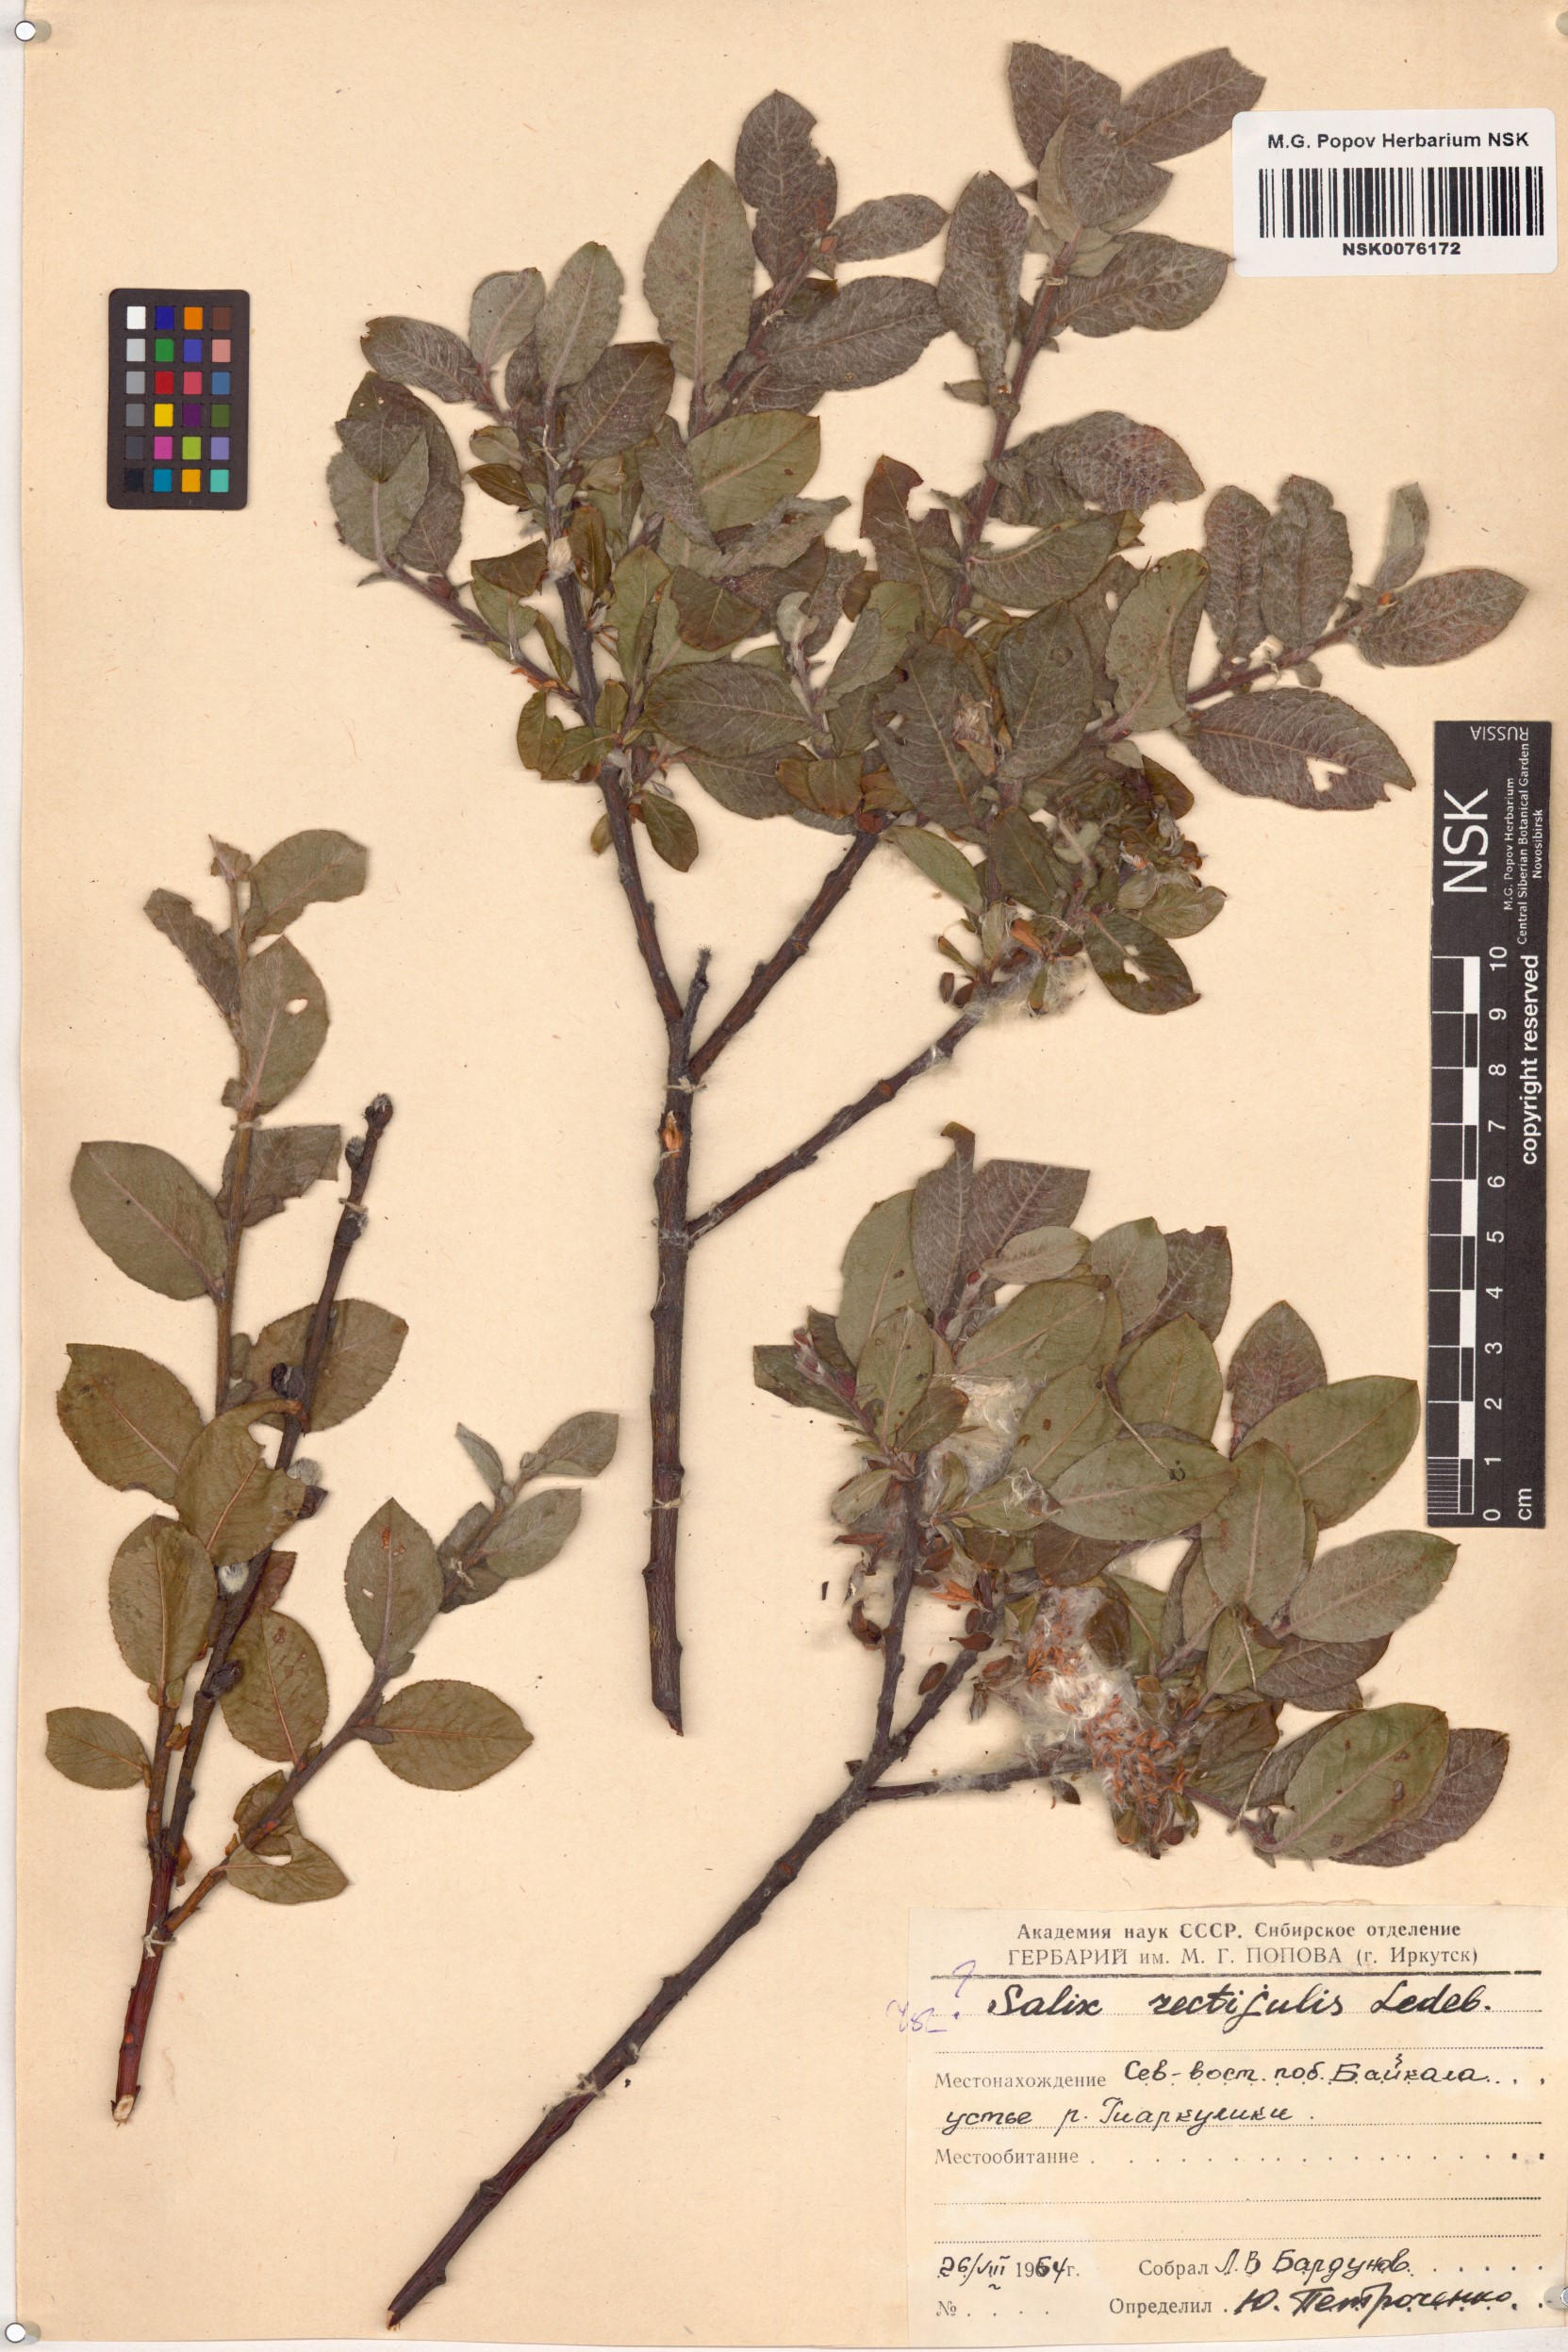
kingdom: Plantae
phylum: Tracheophyta
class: Magnoliopsida
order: Malpighiales
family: Salicaceae
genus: Salix
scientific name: Salix rectijulis
